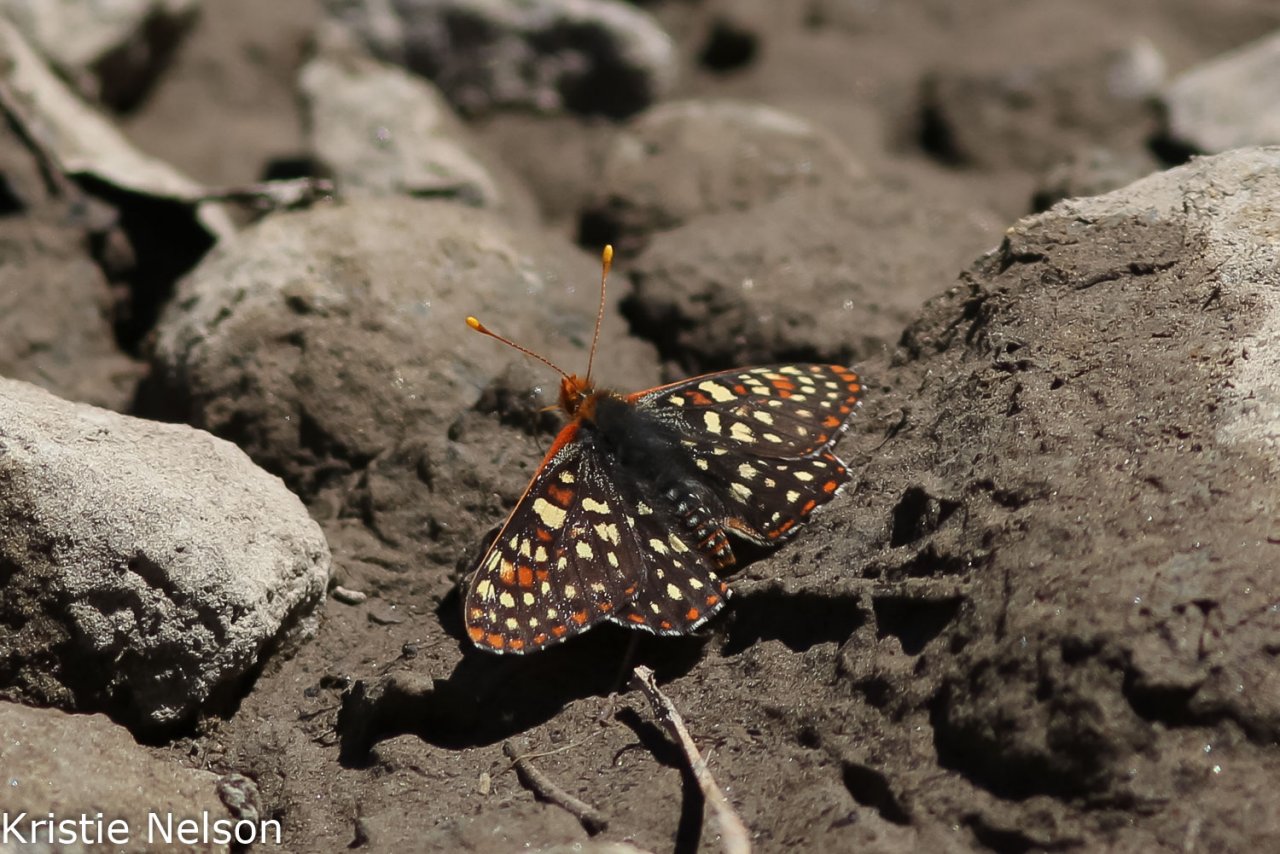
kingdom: Animalia
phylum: Arthropoda
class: Insecta
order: Lepidoptera
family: Nymphalidae
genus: Occidryas
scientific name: Occidryas chalcedona
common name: Chalcedon Checkerspot
